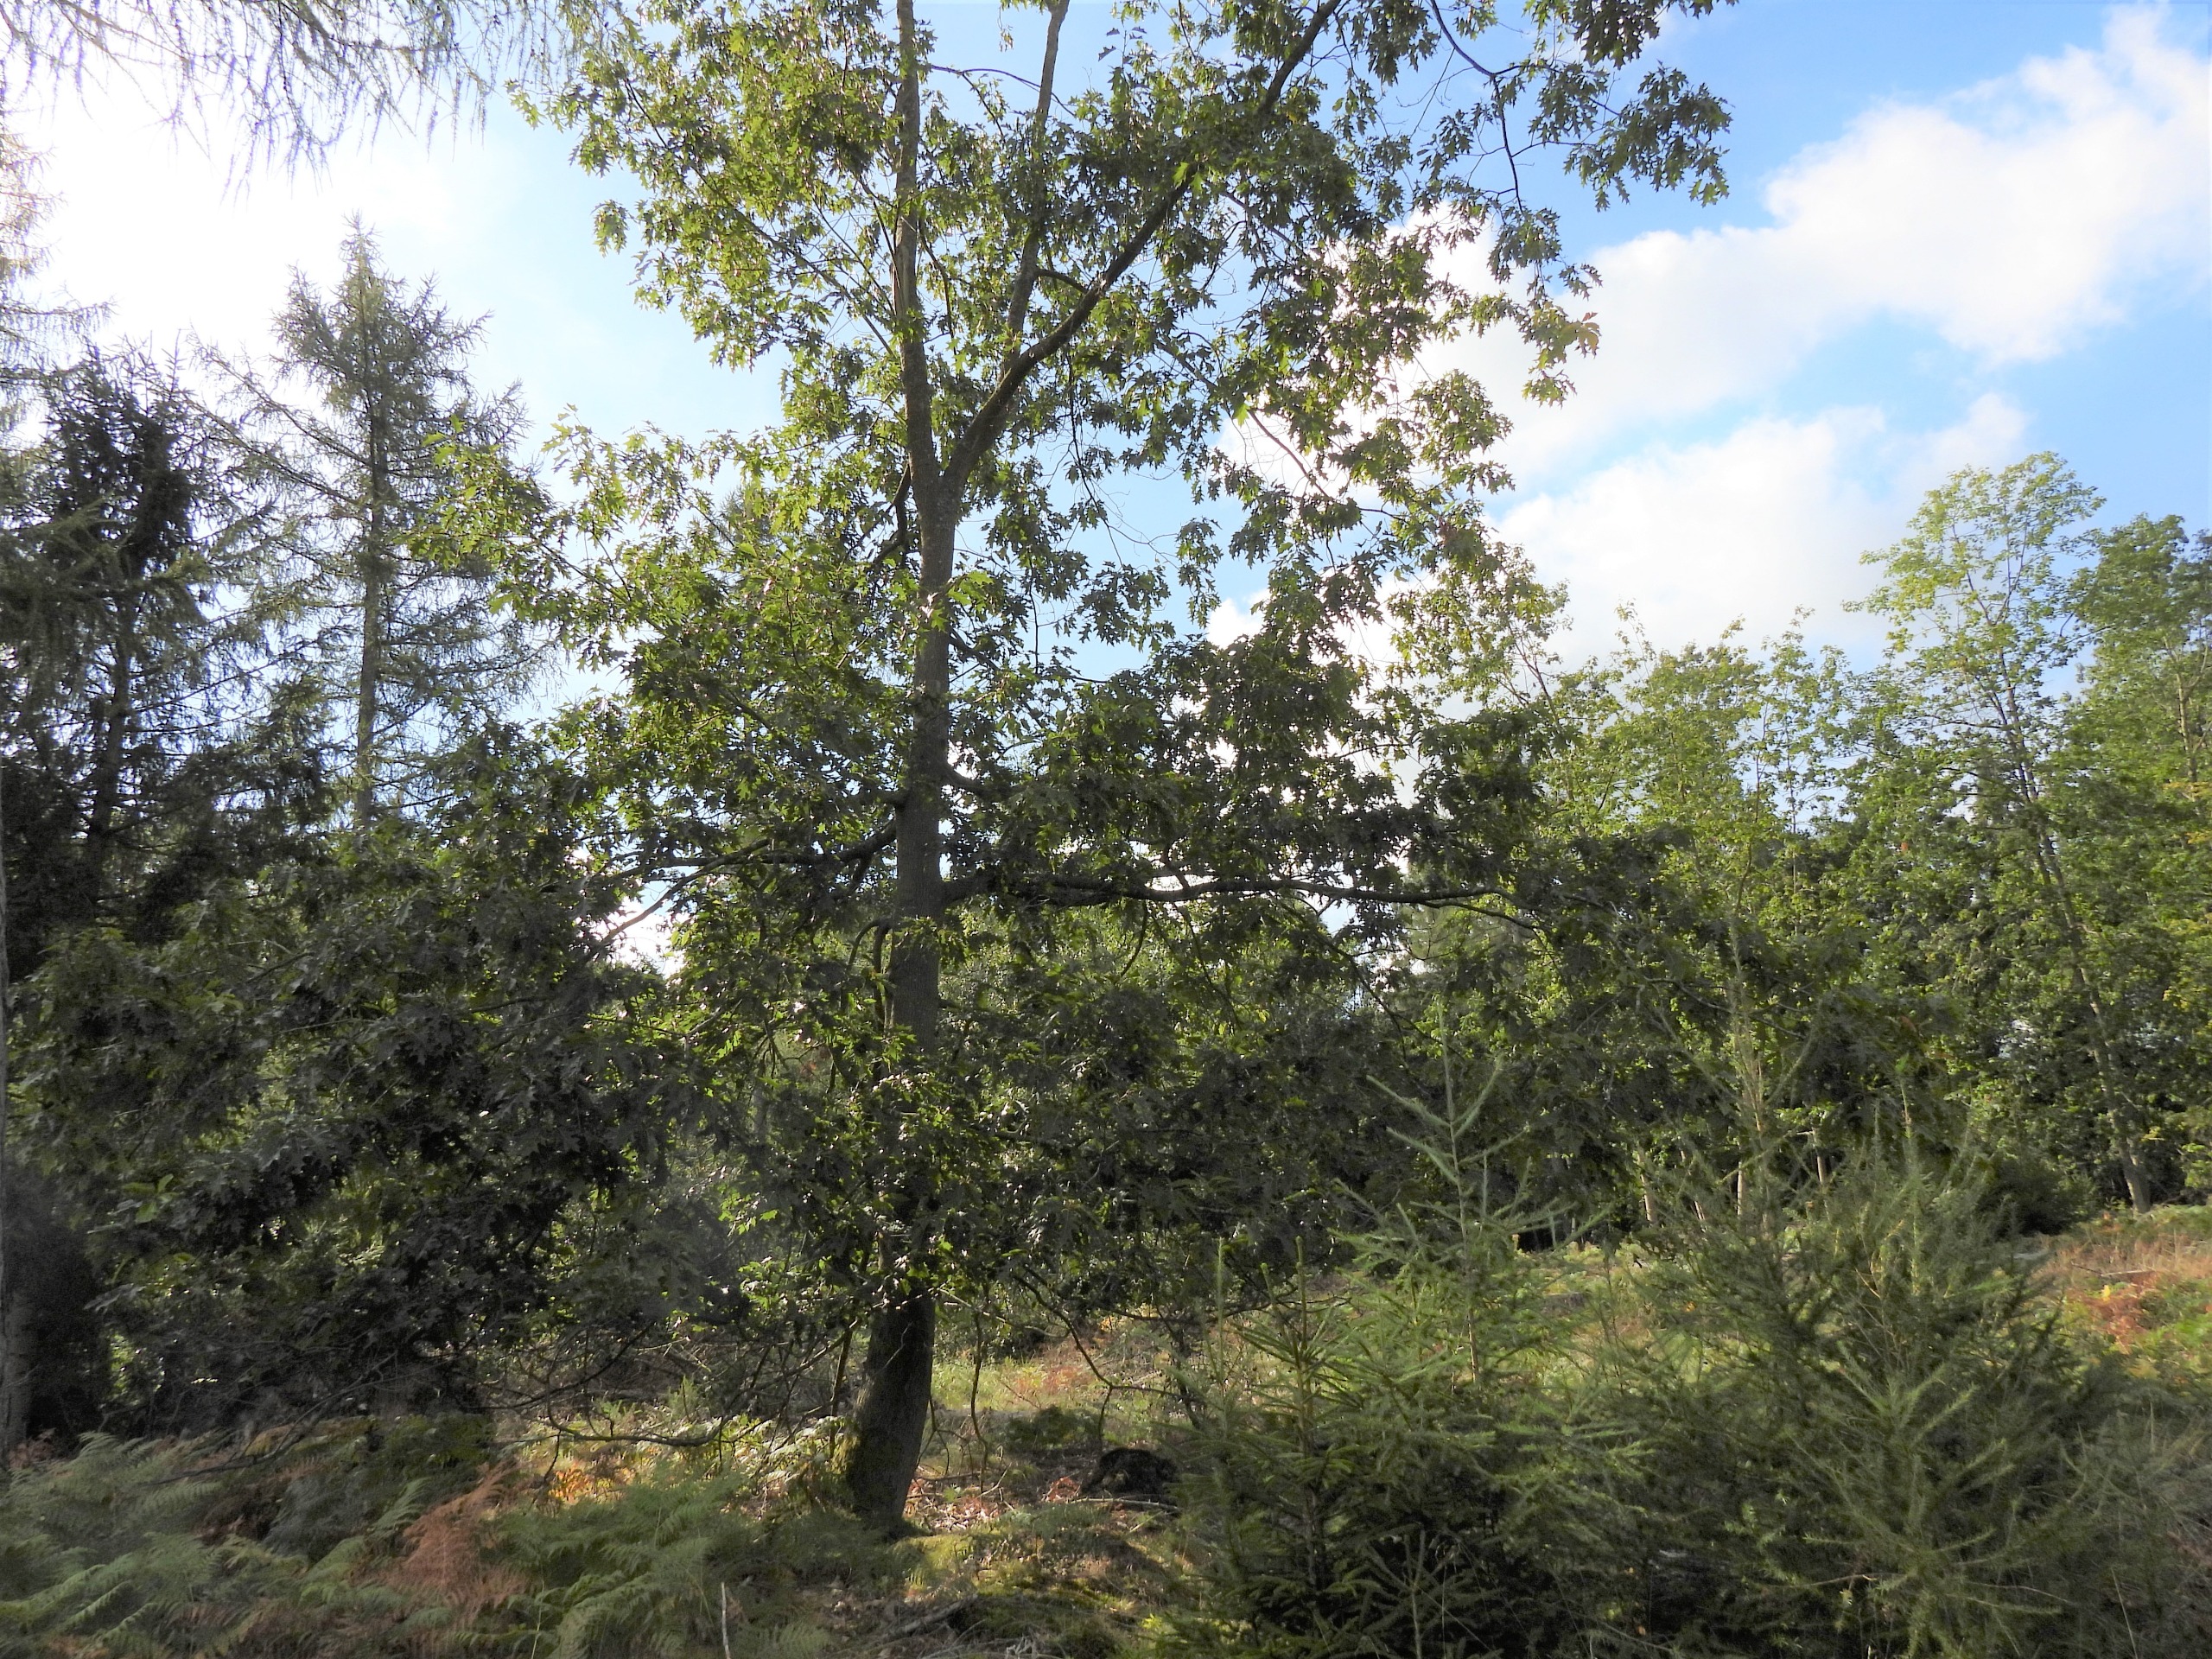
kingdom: Plantae
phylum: Tracheophyta
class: Magnoliopsida
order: Fagales
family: Fagaceae
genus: Quercus
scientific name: Quercus rubra
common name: Rød-eg
